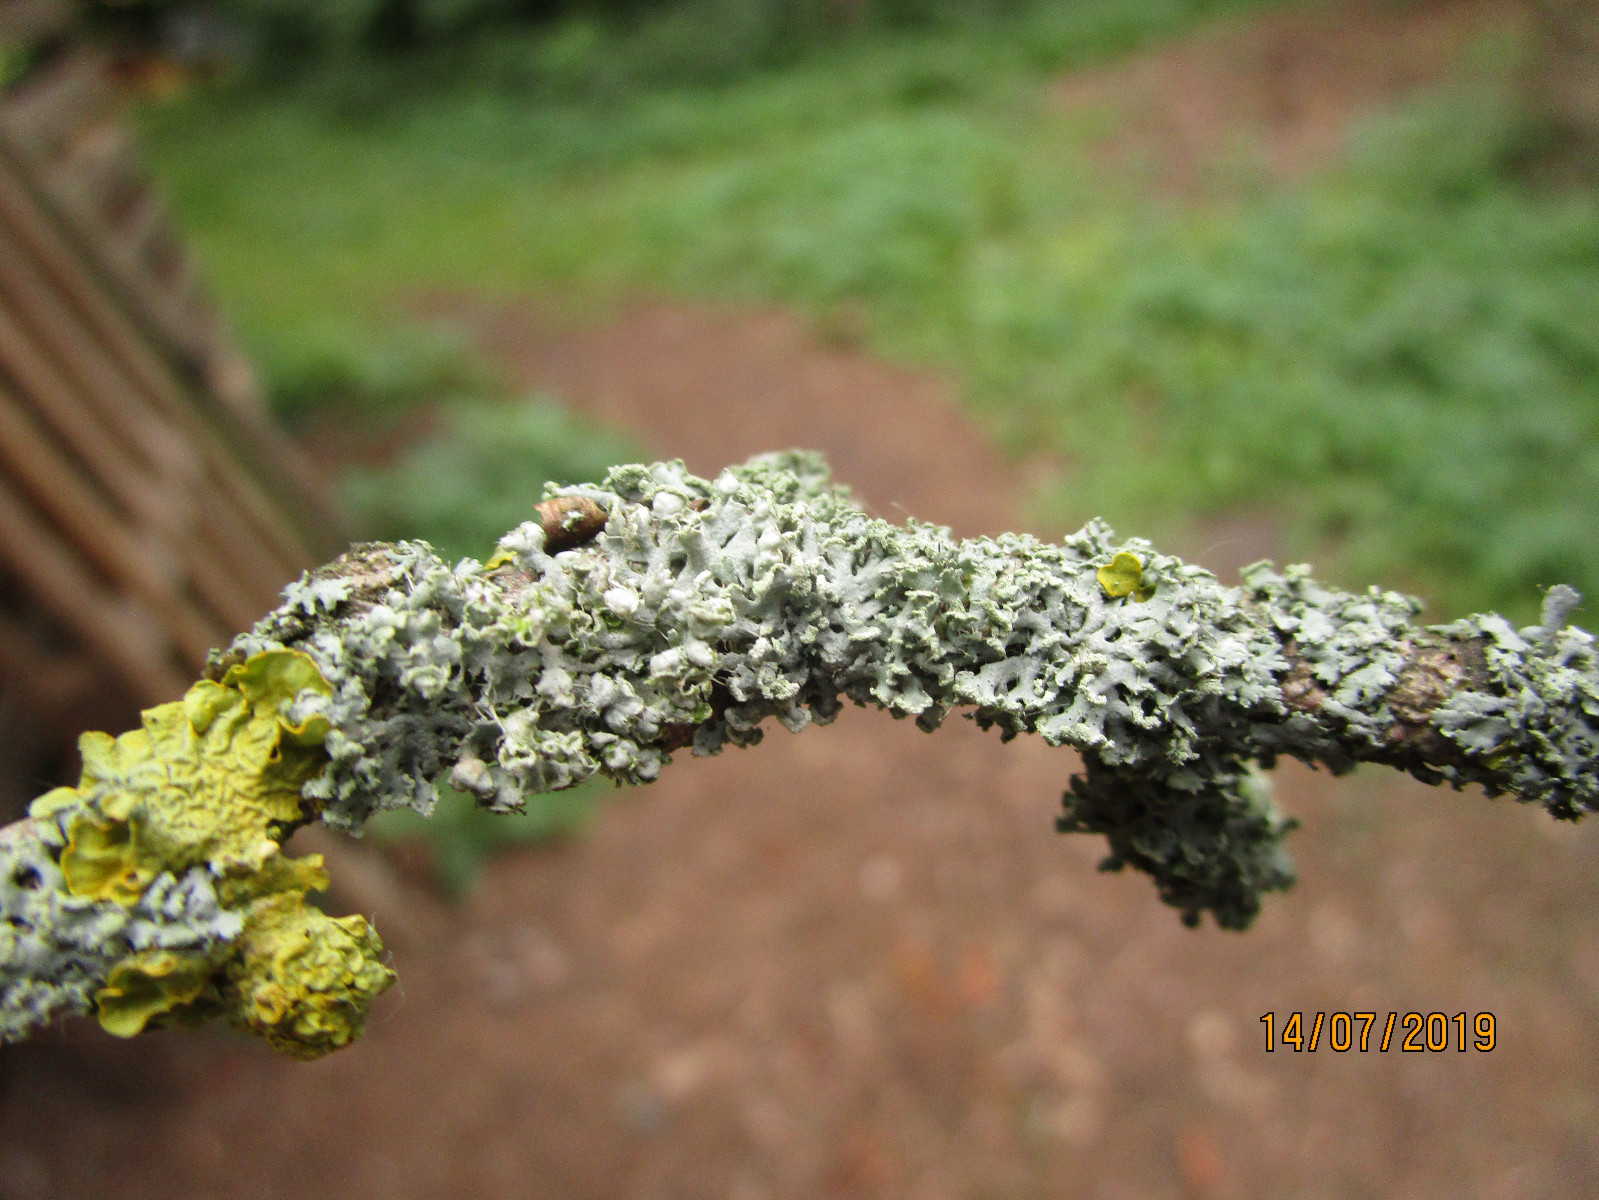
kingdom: Fungi
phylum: Ascomycota
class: Lecanoromycetes
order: Caliciales
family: Physciaceae
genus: Physcia
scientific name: Physcia adscendens
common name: hætte-rosetlav
